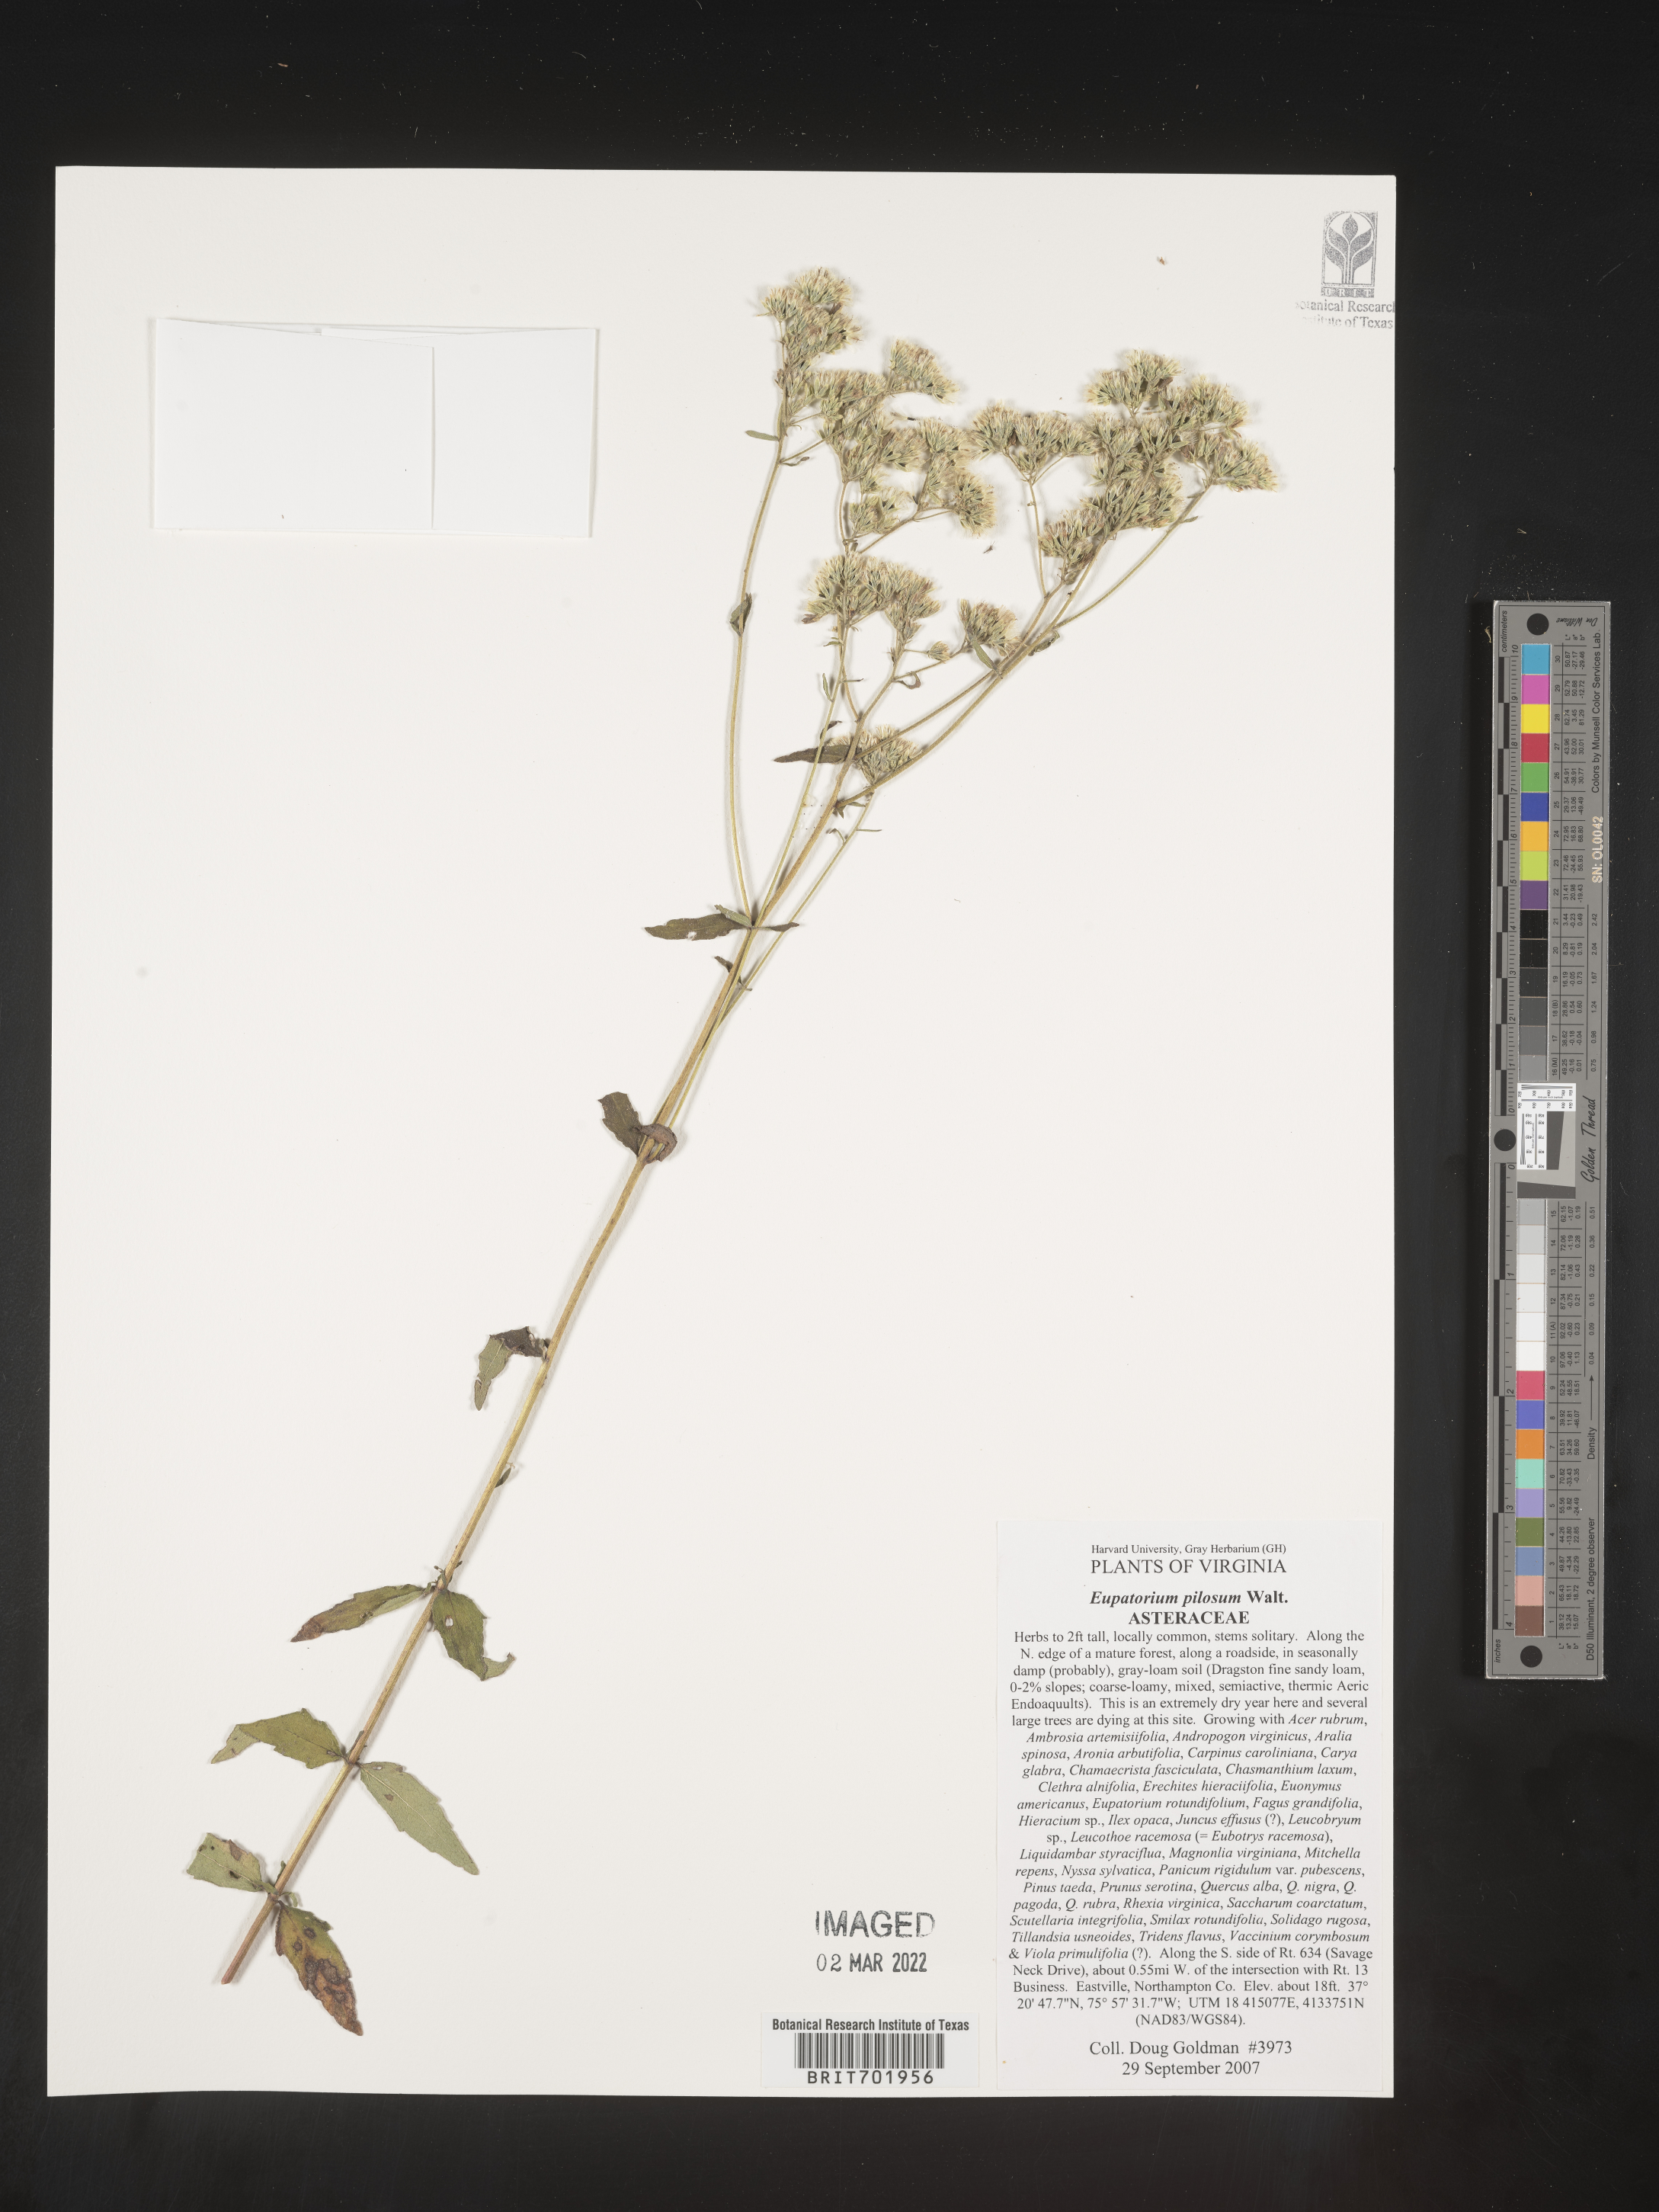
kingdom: Plantae
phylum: Tracheophyta
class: Magnoliopsida
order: Asterales
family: Asteraceae
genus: Eupatorium
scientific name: Eupatorium pilosum
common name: Rough boneset
